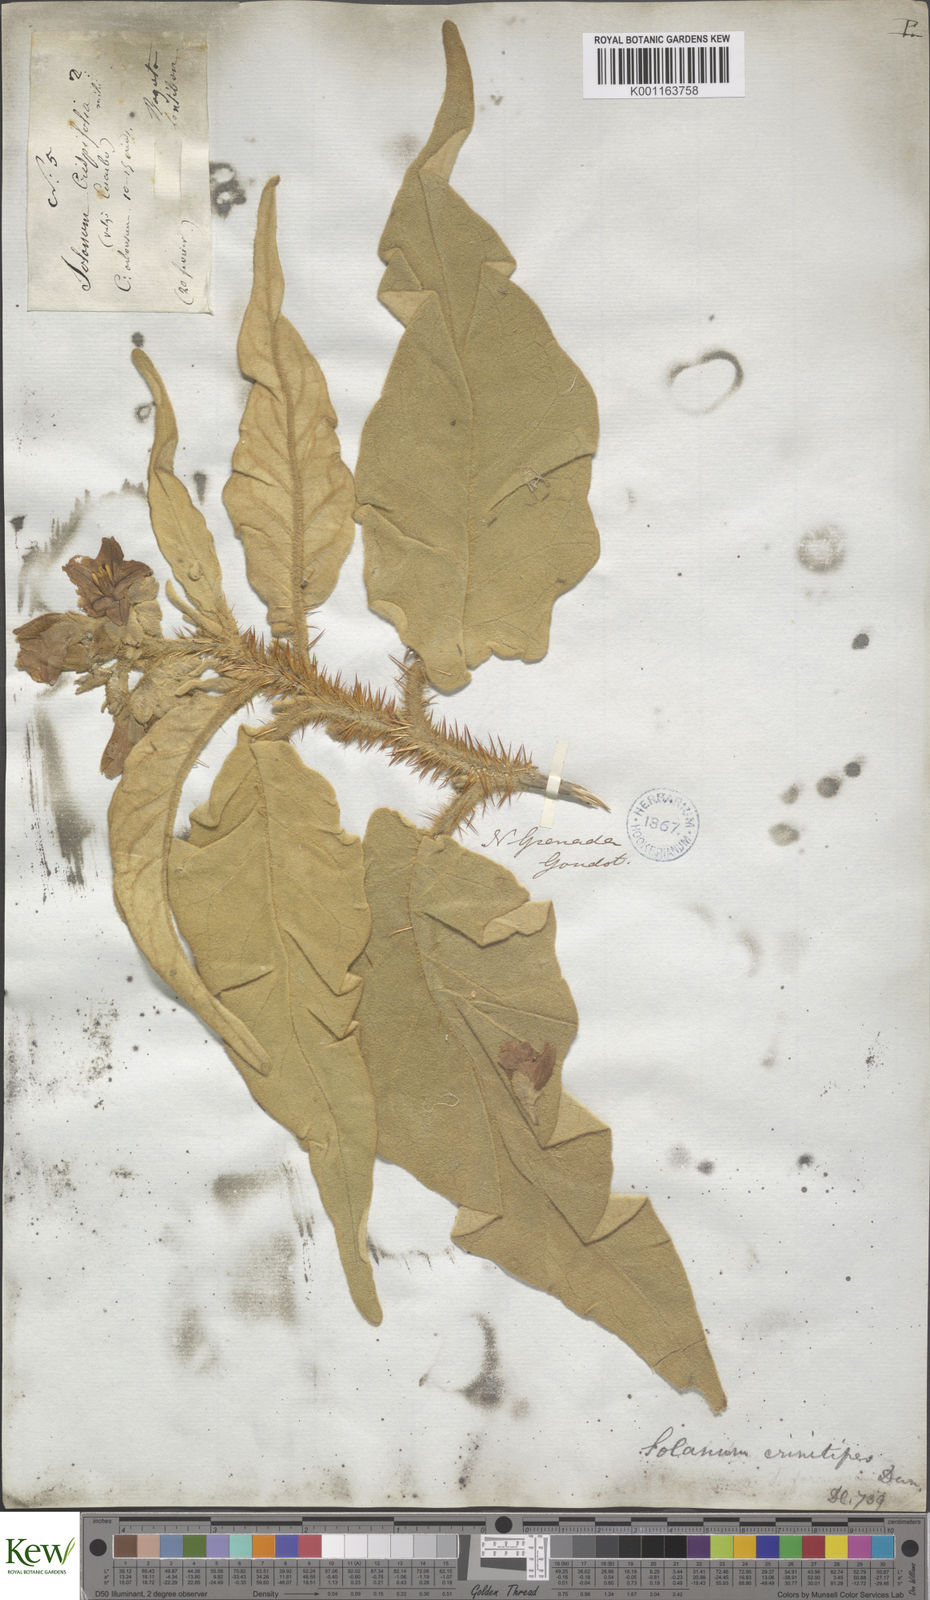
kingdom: Plantae
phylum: Tracheophyta
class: Magnoliopsida
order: Solanales
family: Solanaceae
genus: Solanum
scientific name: Solanum crinitipes
